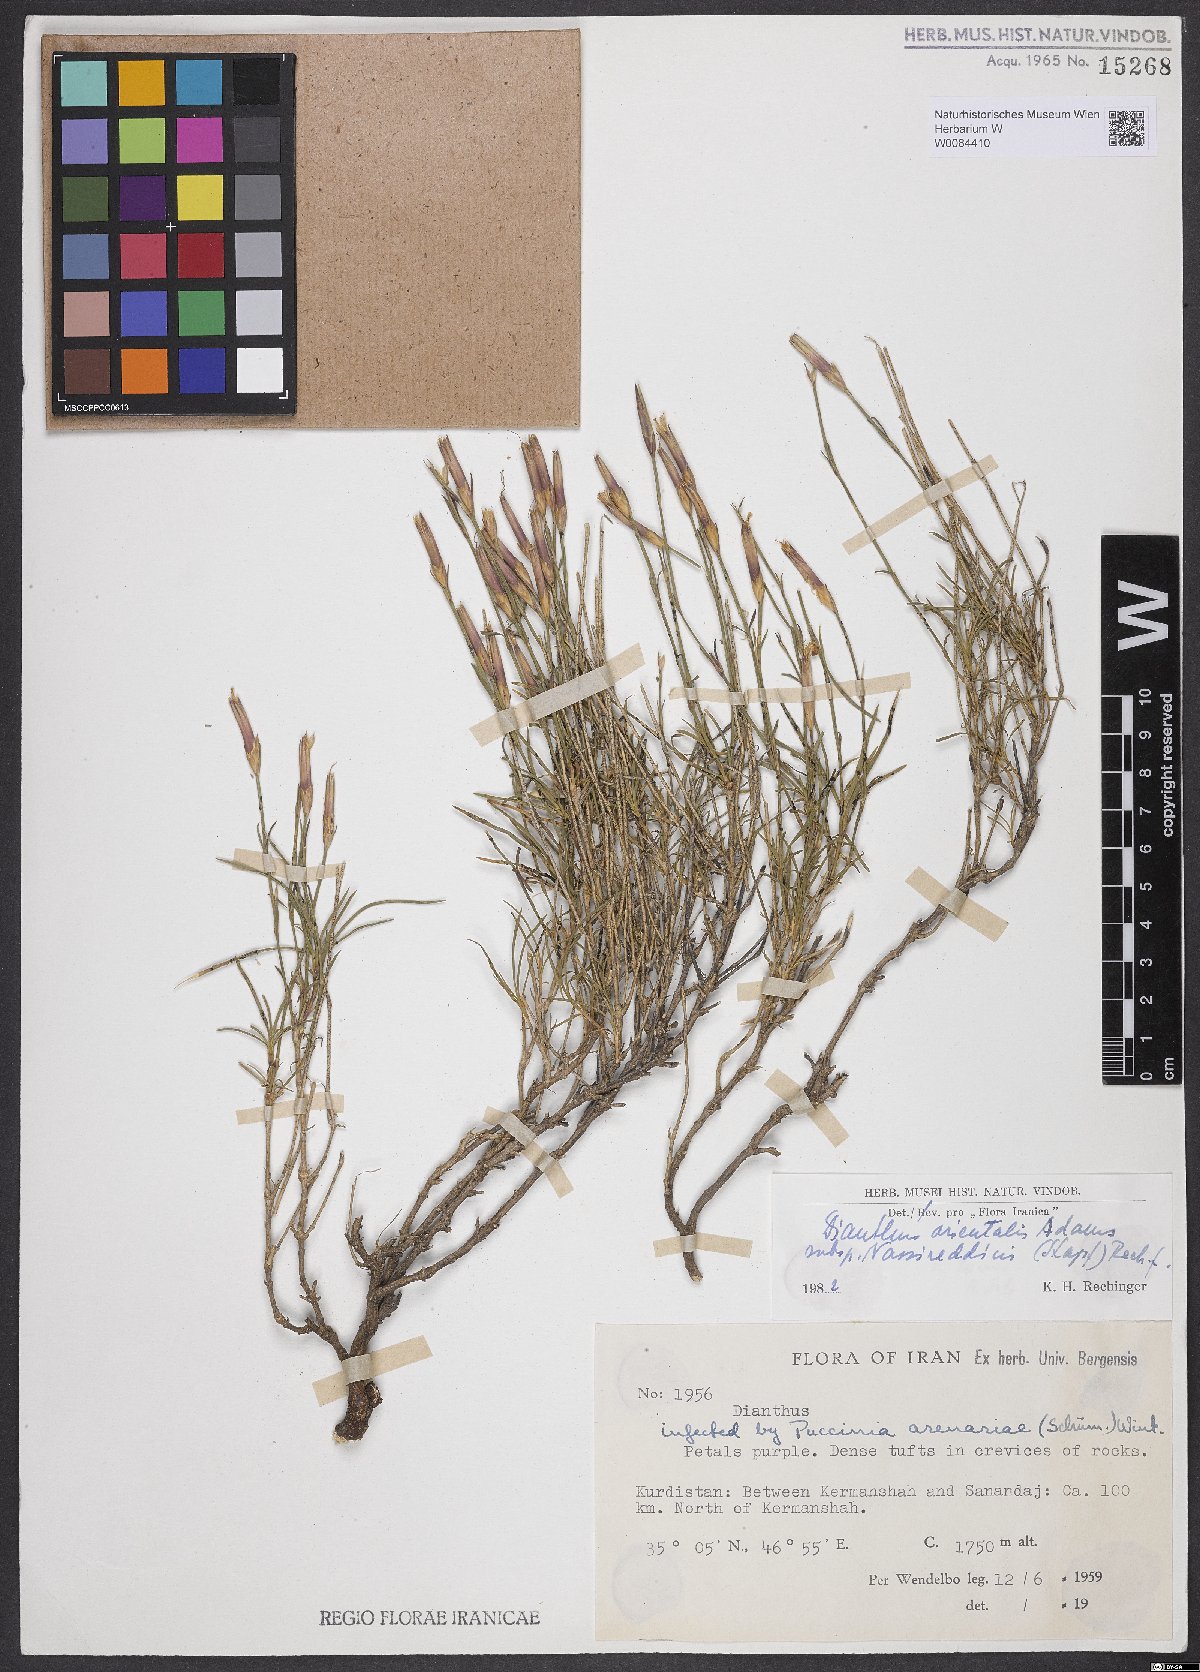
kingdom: Plantae
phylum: Tracheophyta
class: Magnoliopsida
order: Caryophyllales
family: Caryophyllaceae
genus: Dianthus
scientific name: Dianthus orientalis
